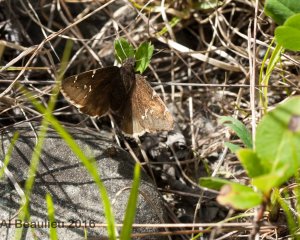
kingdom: Animalia
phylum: Arthropoda
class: Insecta
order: Lepidoptera
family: Hesperiidae
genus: Autochton
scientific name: Autochton
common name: Northern Cloudywing
